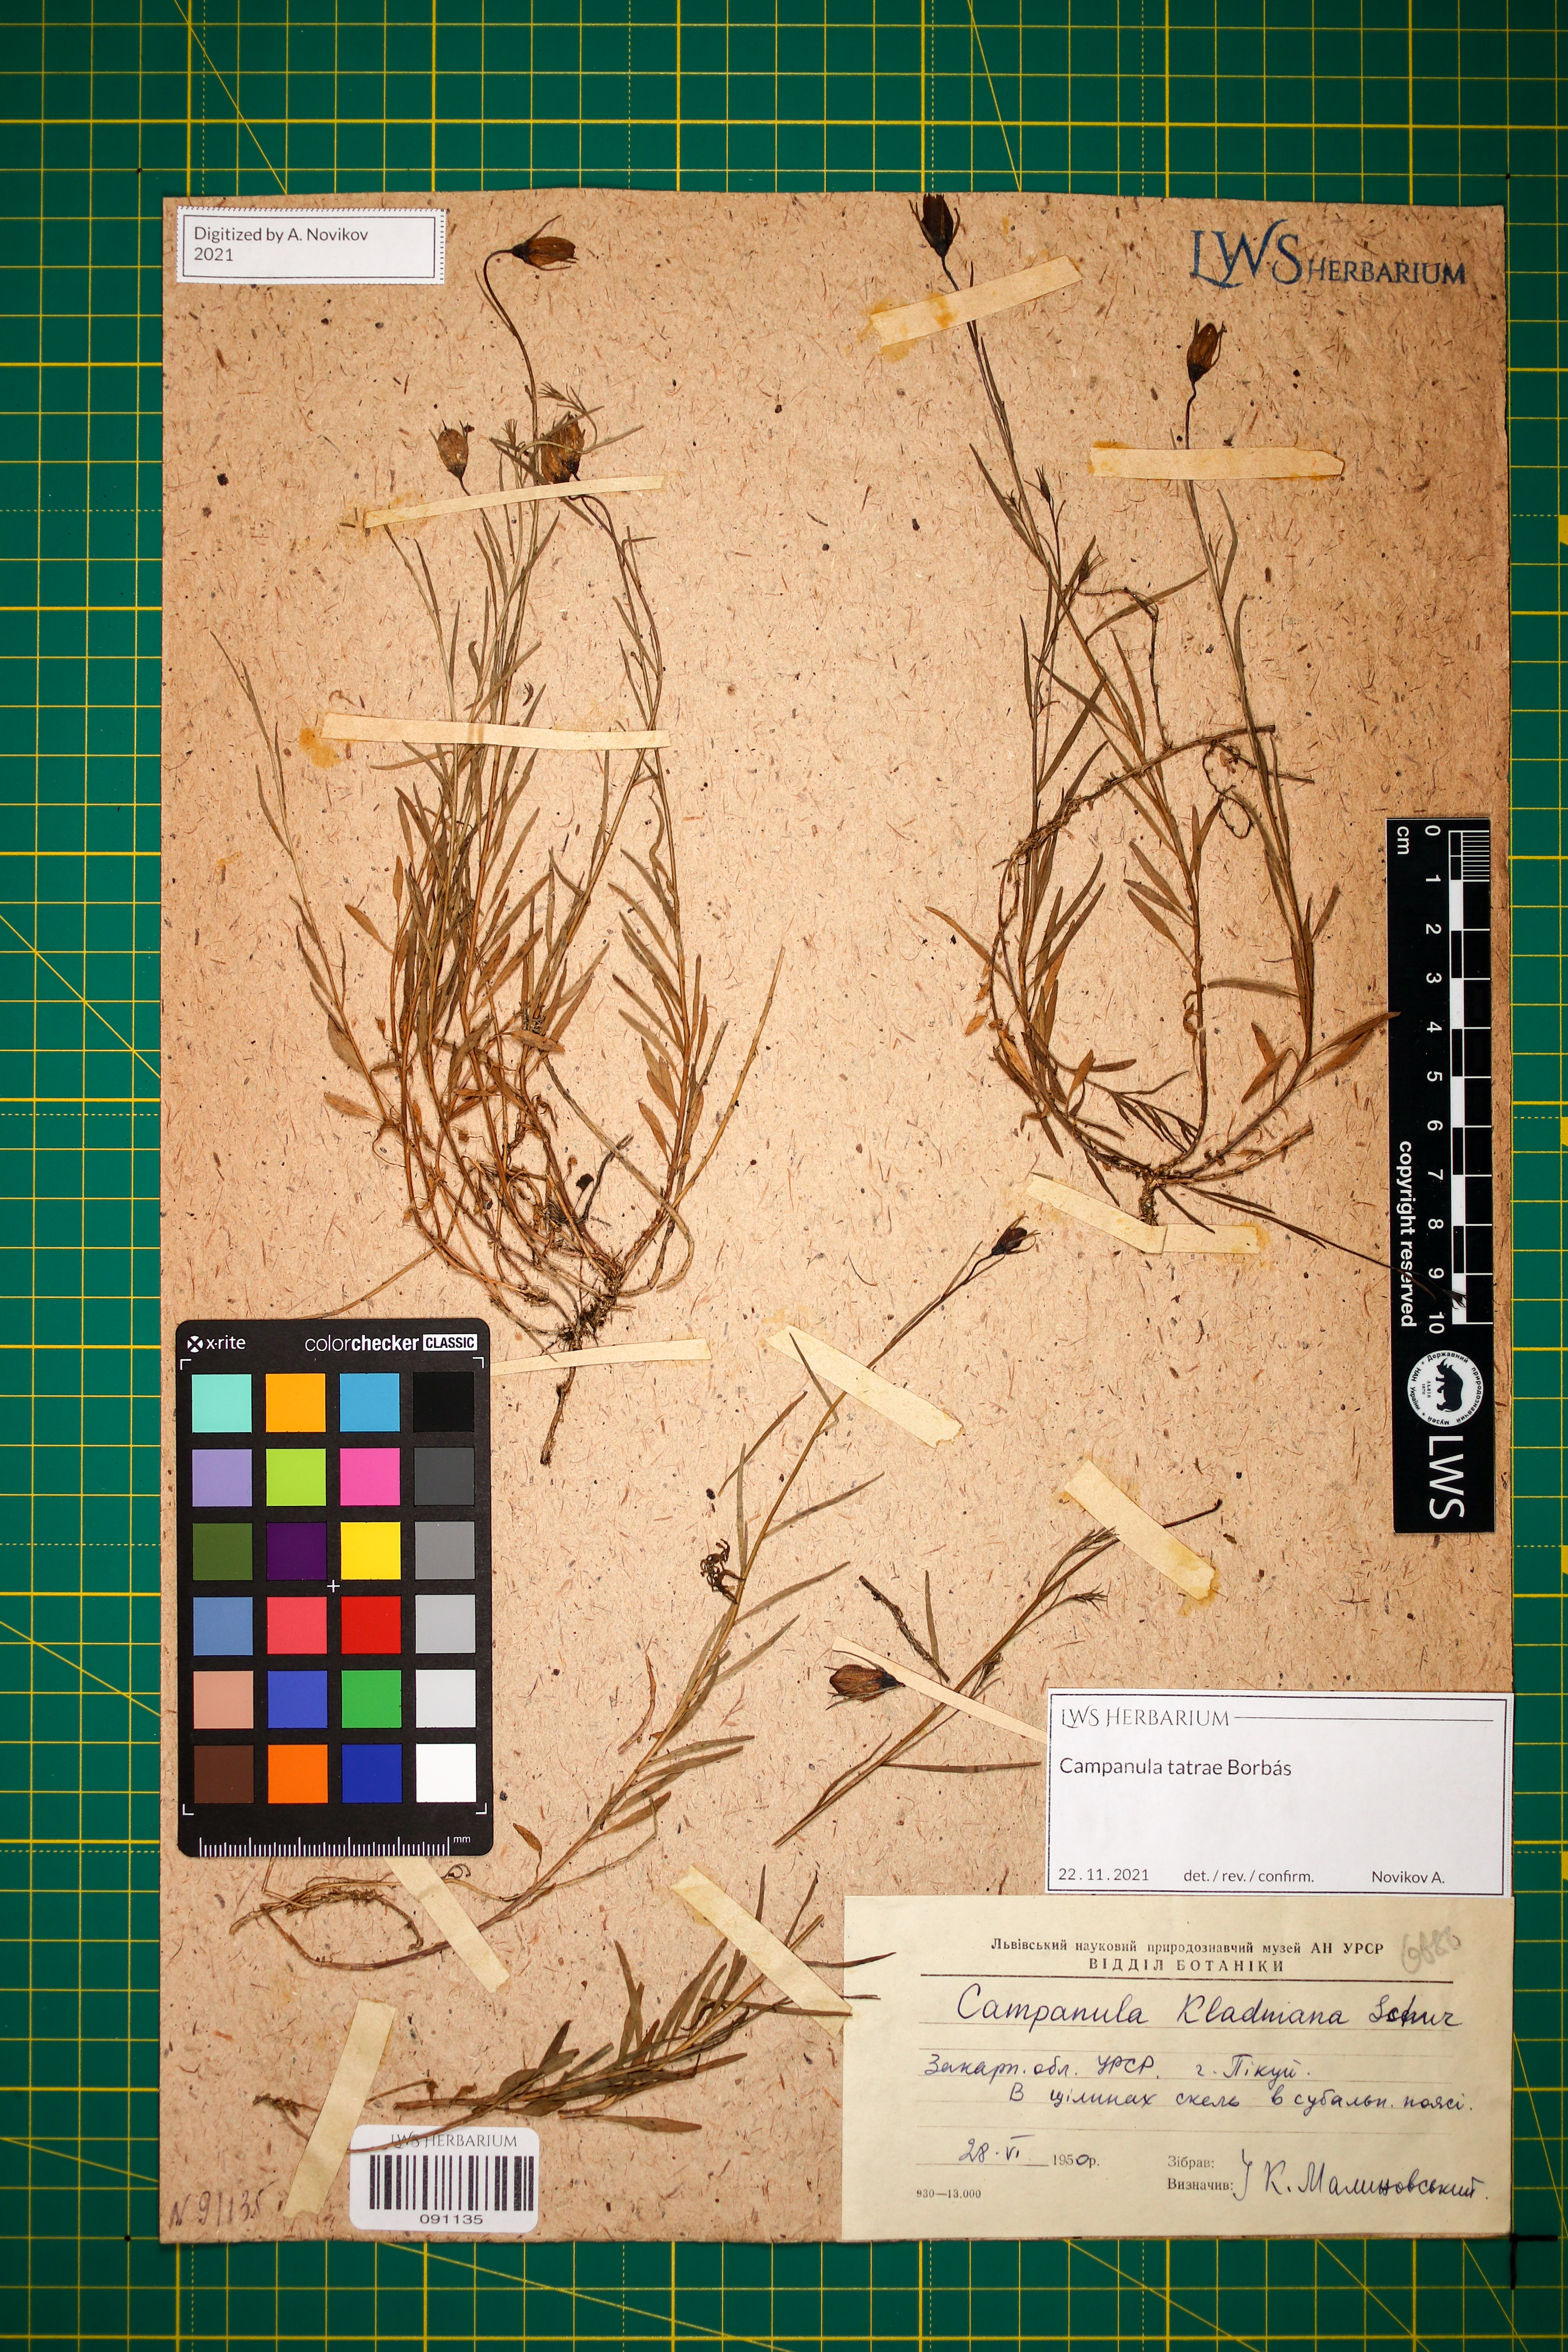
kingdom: Plantae
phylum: Tracheophyta
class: Magnoliopsida
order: Asterales
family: Campanulaceae
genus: Campanula
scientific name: Campanula kladniana
